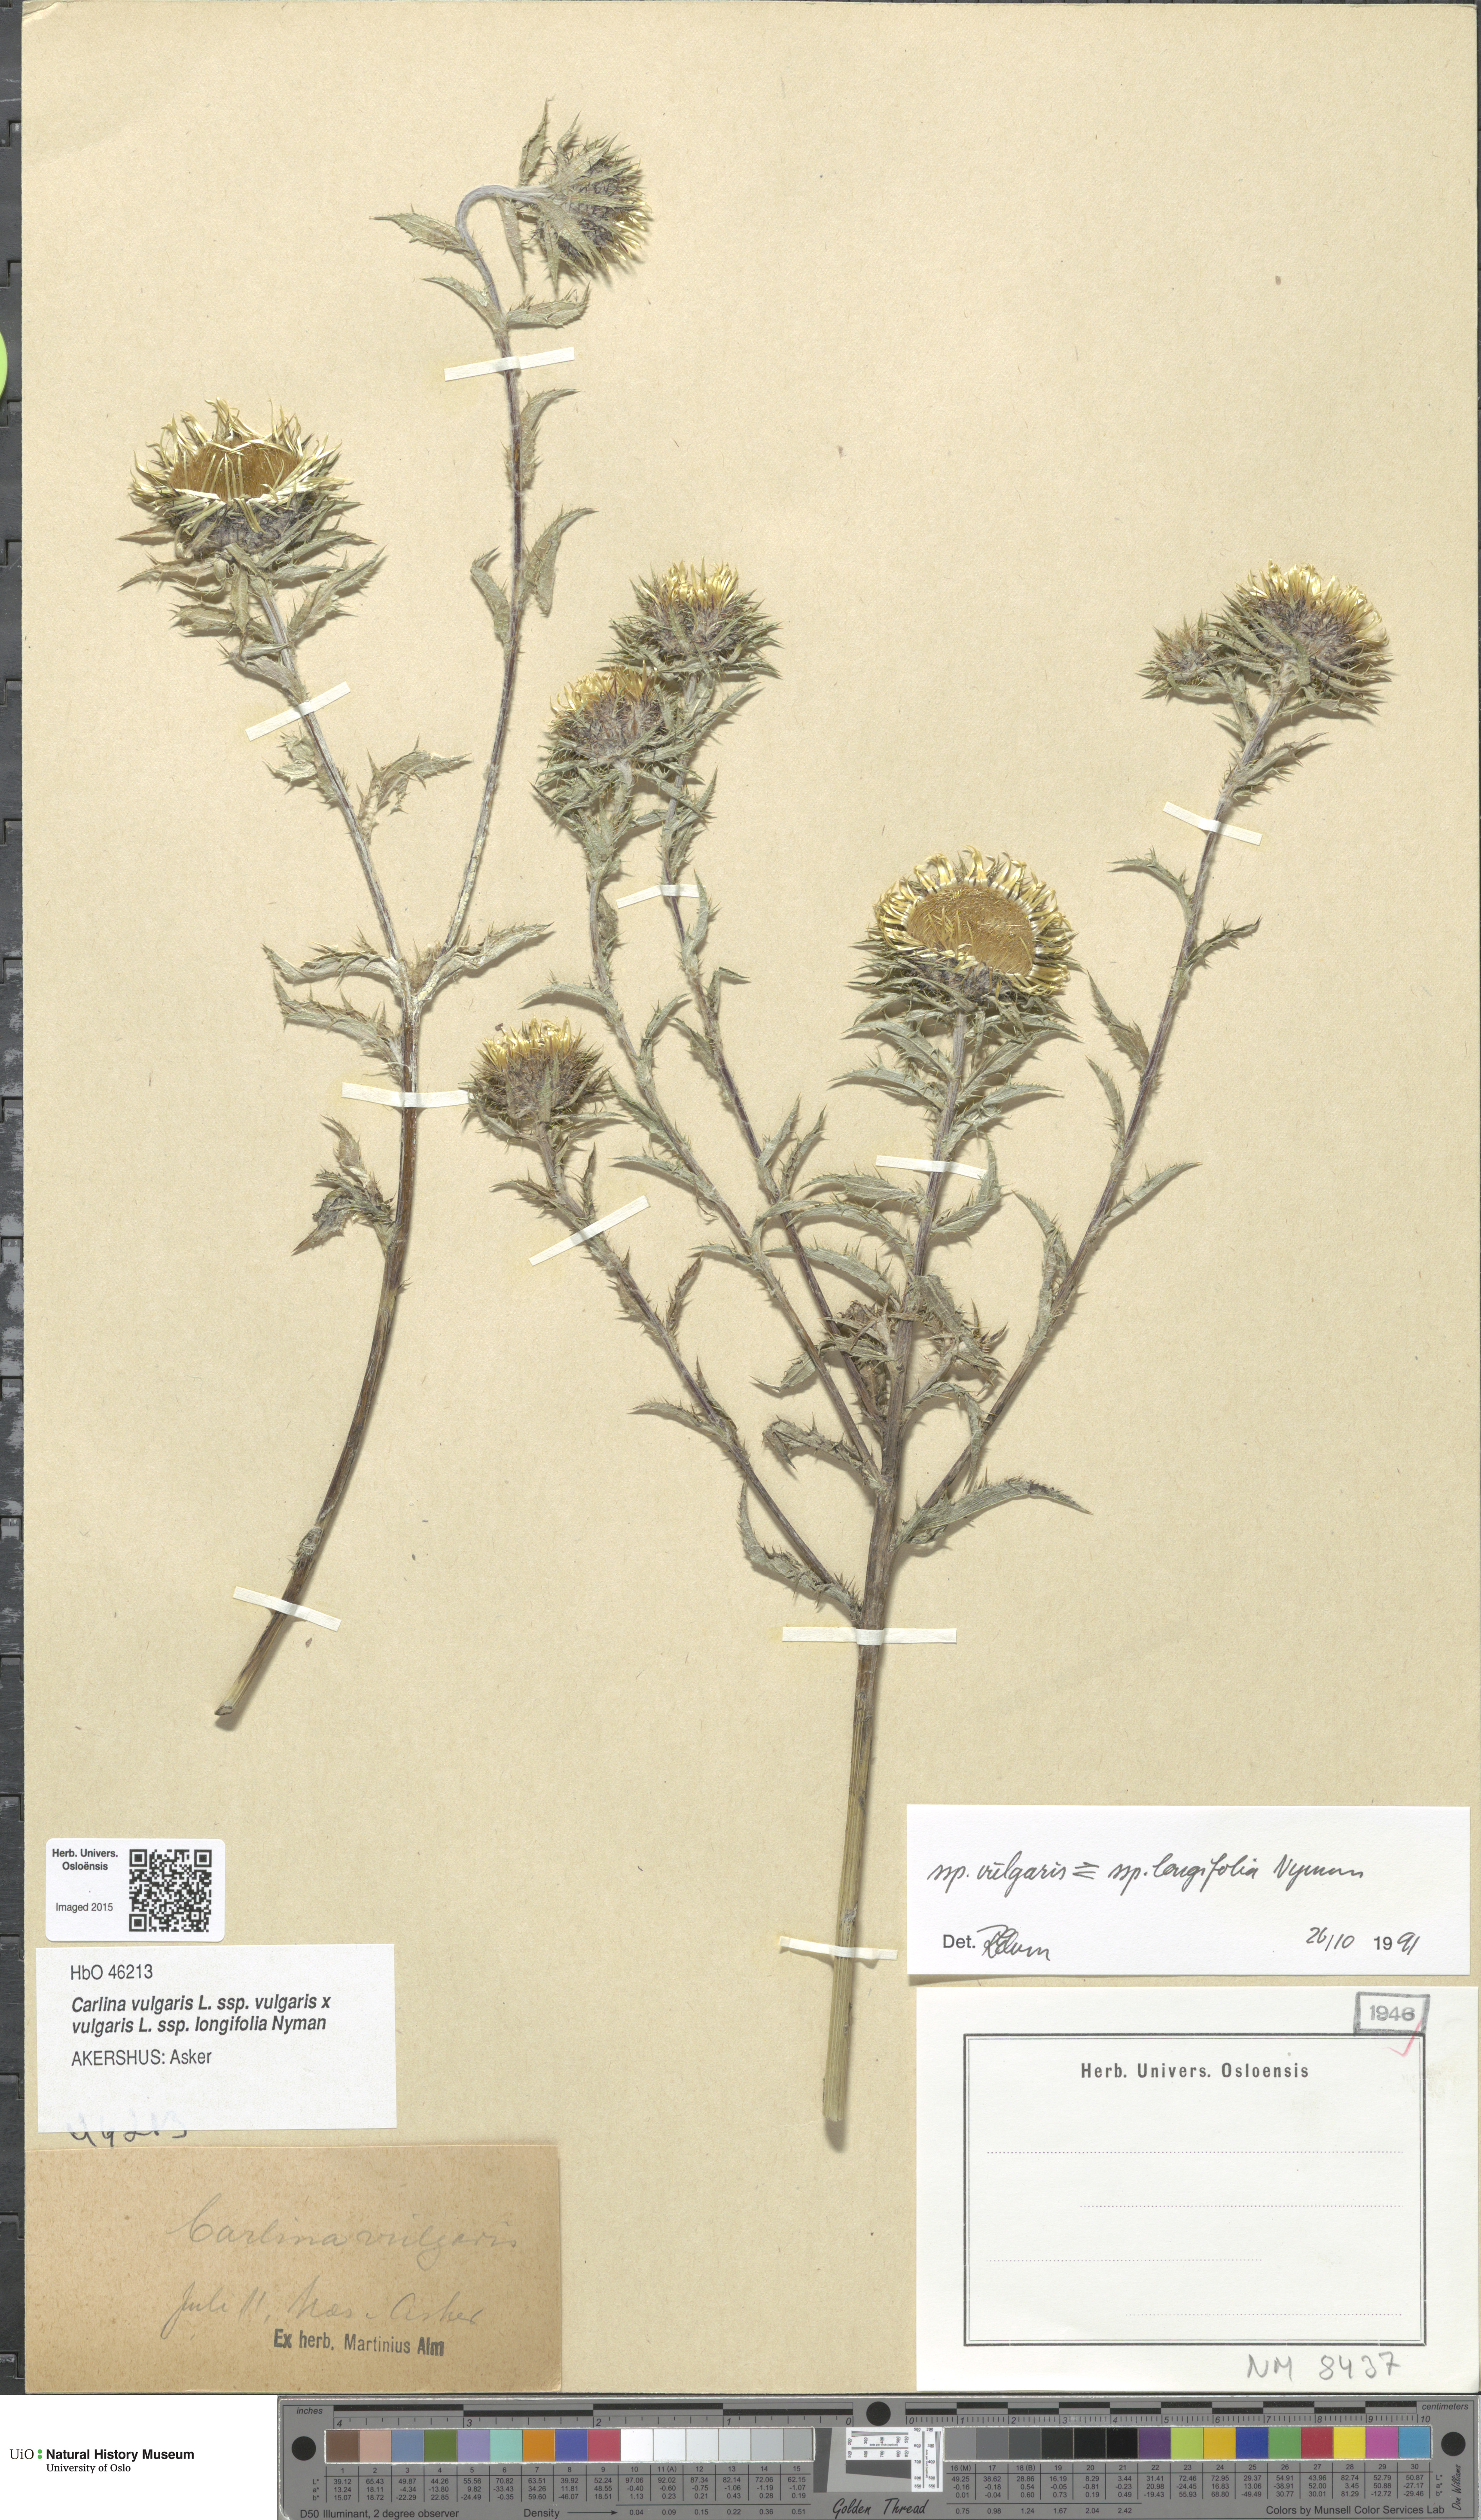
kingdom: Plantae
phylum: Tracheophyta
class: Magnoliopsida
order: Asterales
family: Asteraceae
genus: Carlina
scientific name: Carlina
